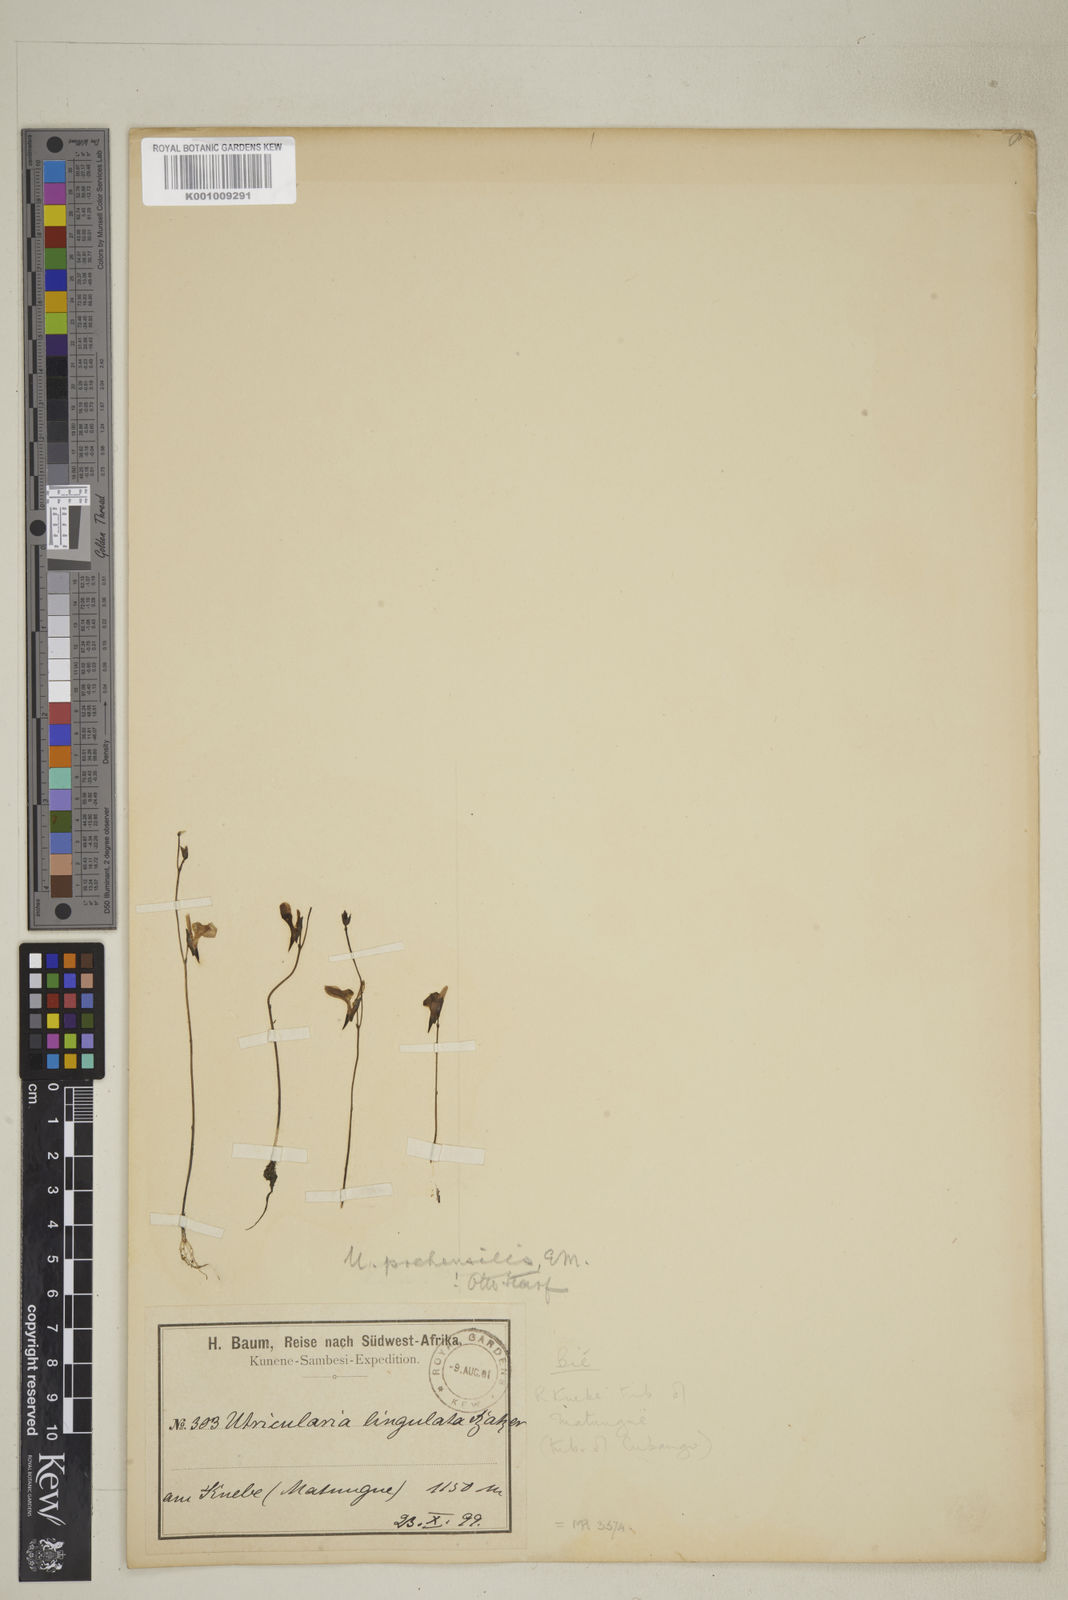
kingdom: Plantae
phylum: Tracheophyta
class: Magnoliopsida
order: Lamiales
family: Lentibulariaceae
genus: Utricularia
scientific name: Utricularia prehensilis
